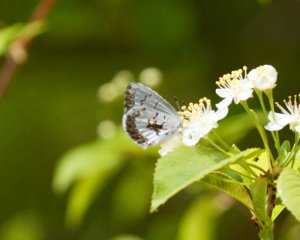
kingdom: Animalia
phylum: Arthropoda
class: Insecta
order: Lepidoptera
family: Lycaenidae
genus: Celastrina
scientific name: Celastrina lucia
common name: Northern Spring Azure
